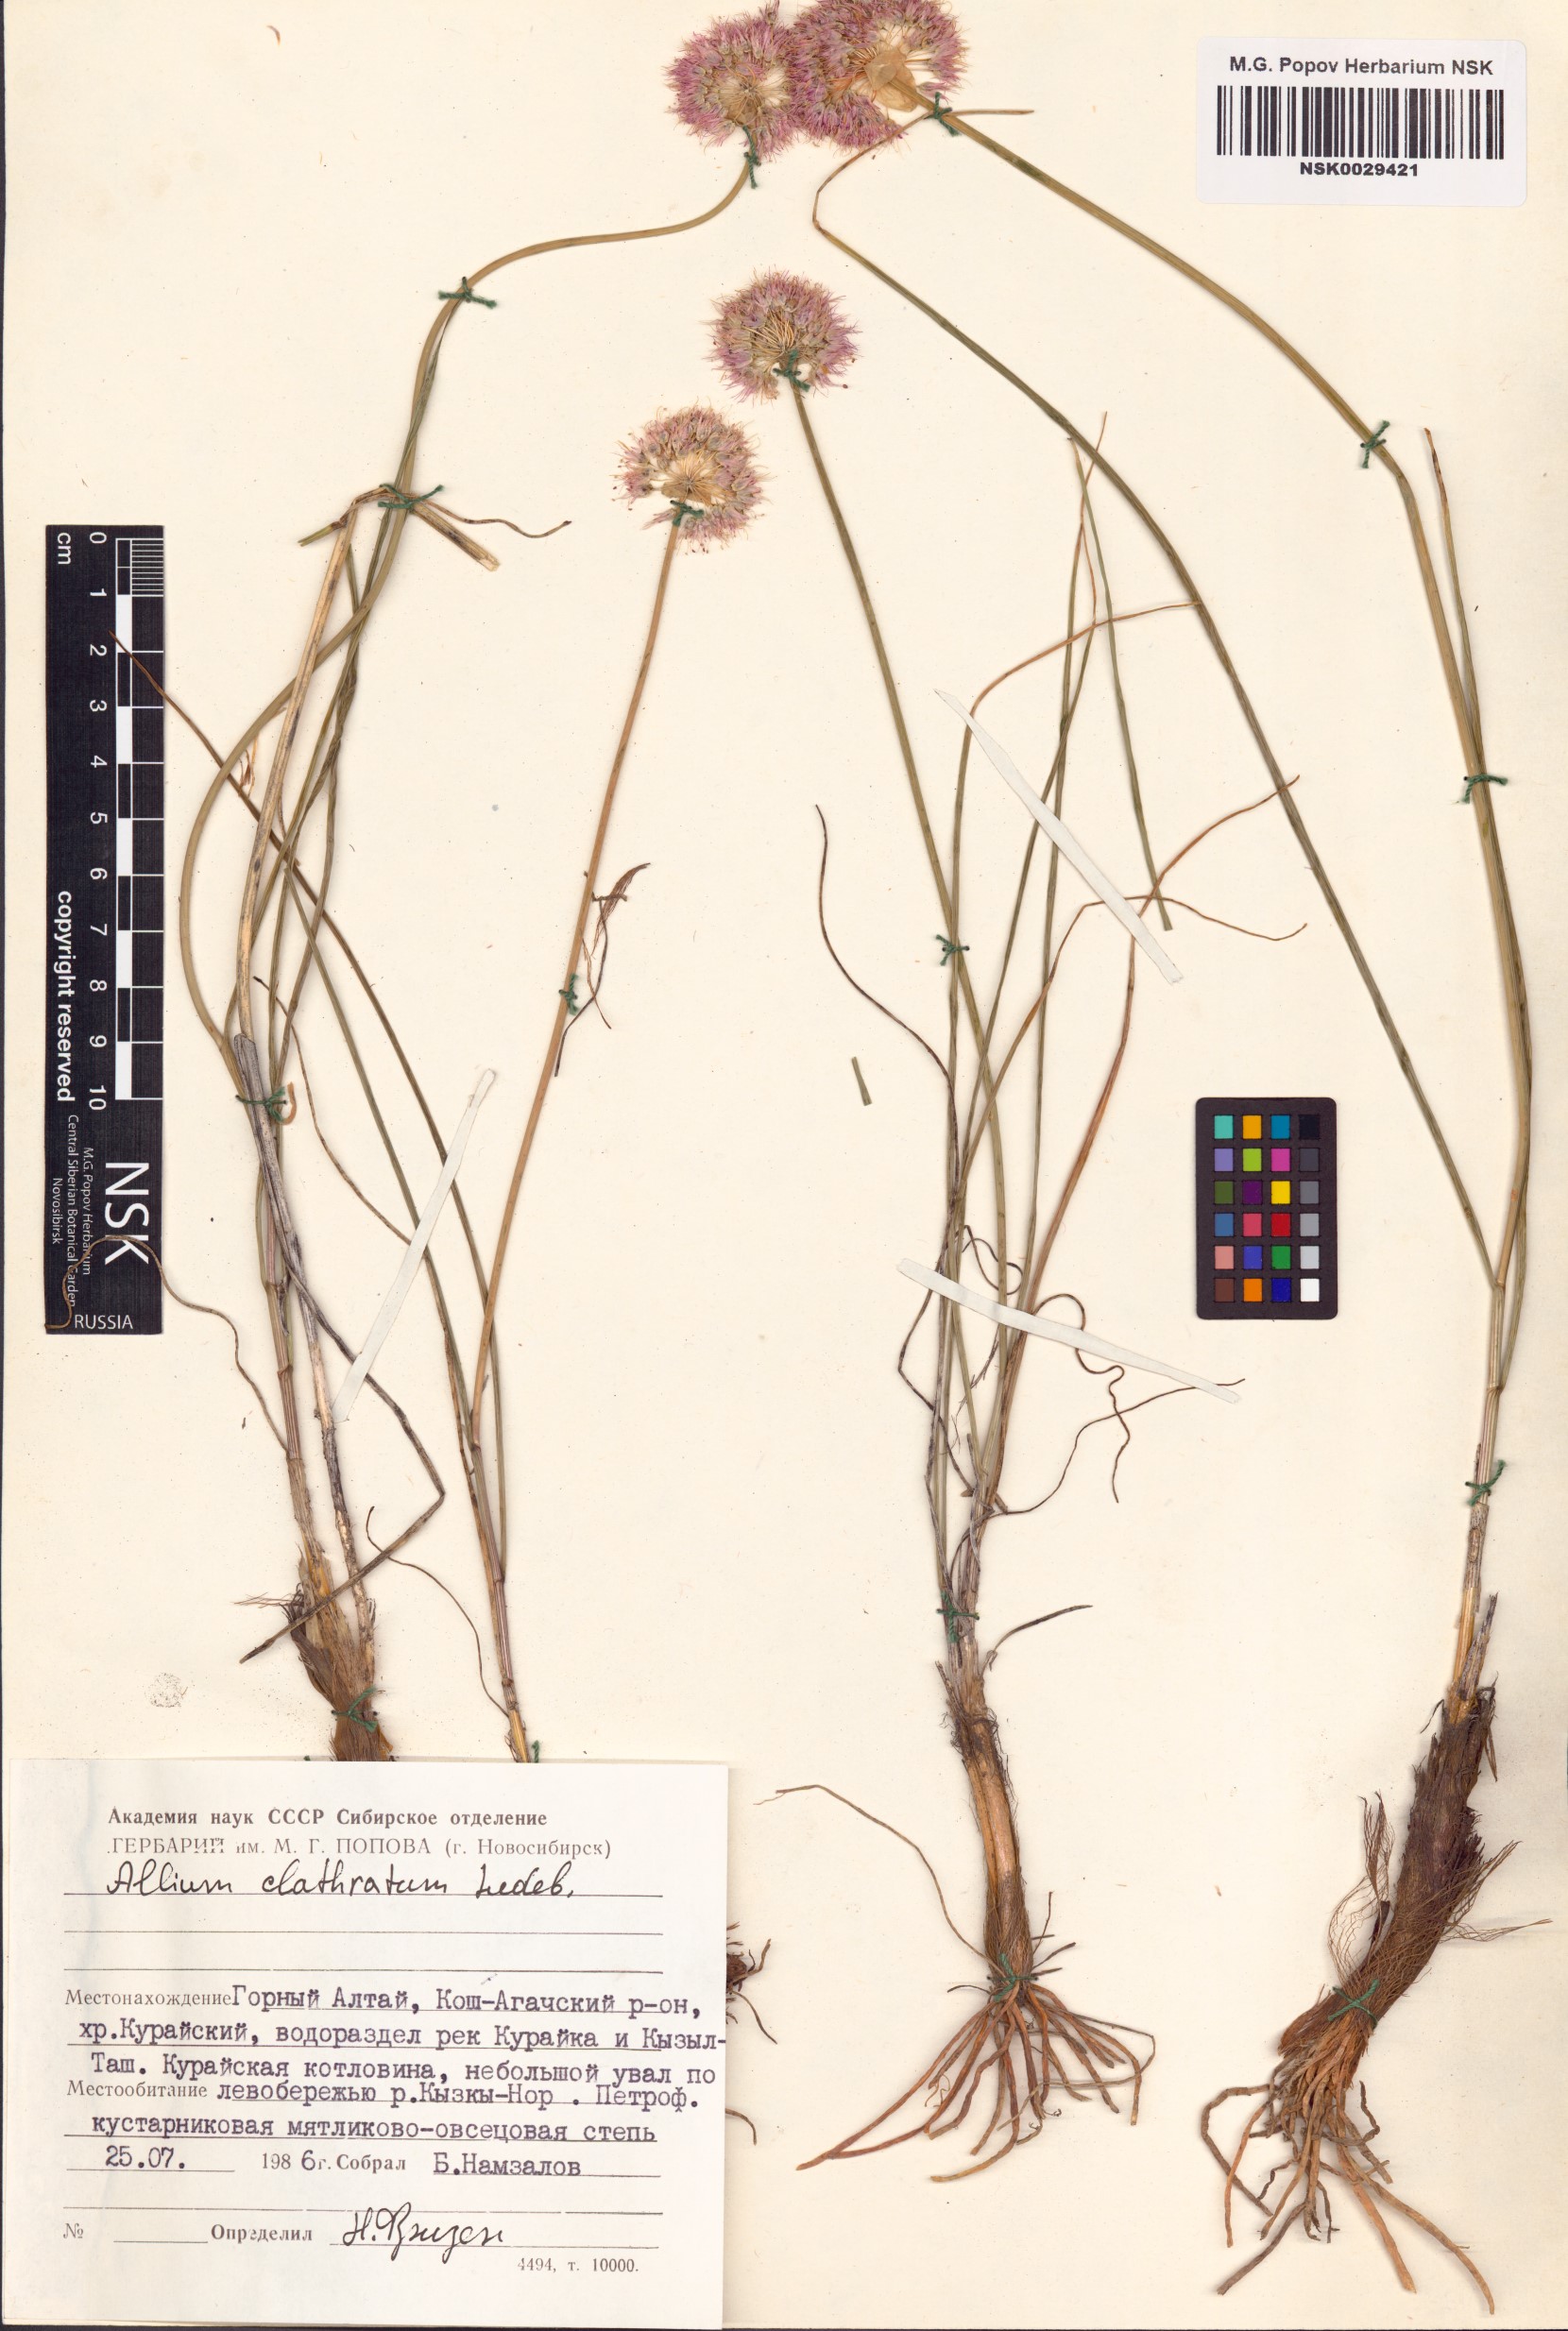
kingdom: Plantae
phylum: Tracheophyta
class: Liliopsida
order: Asparagales
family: Amaryllidaceae
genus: Allium
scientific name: Allium clathratum
